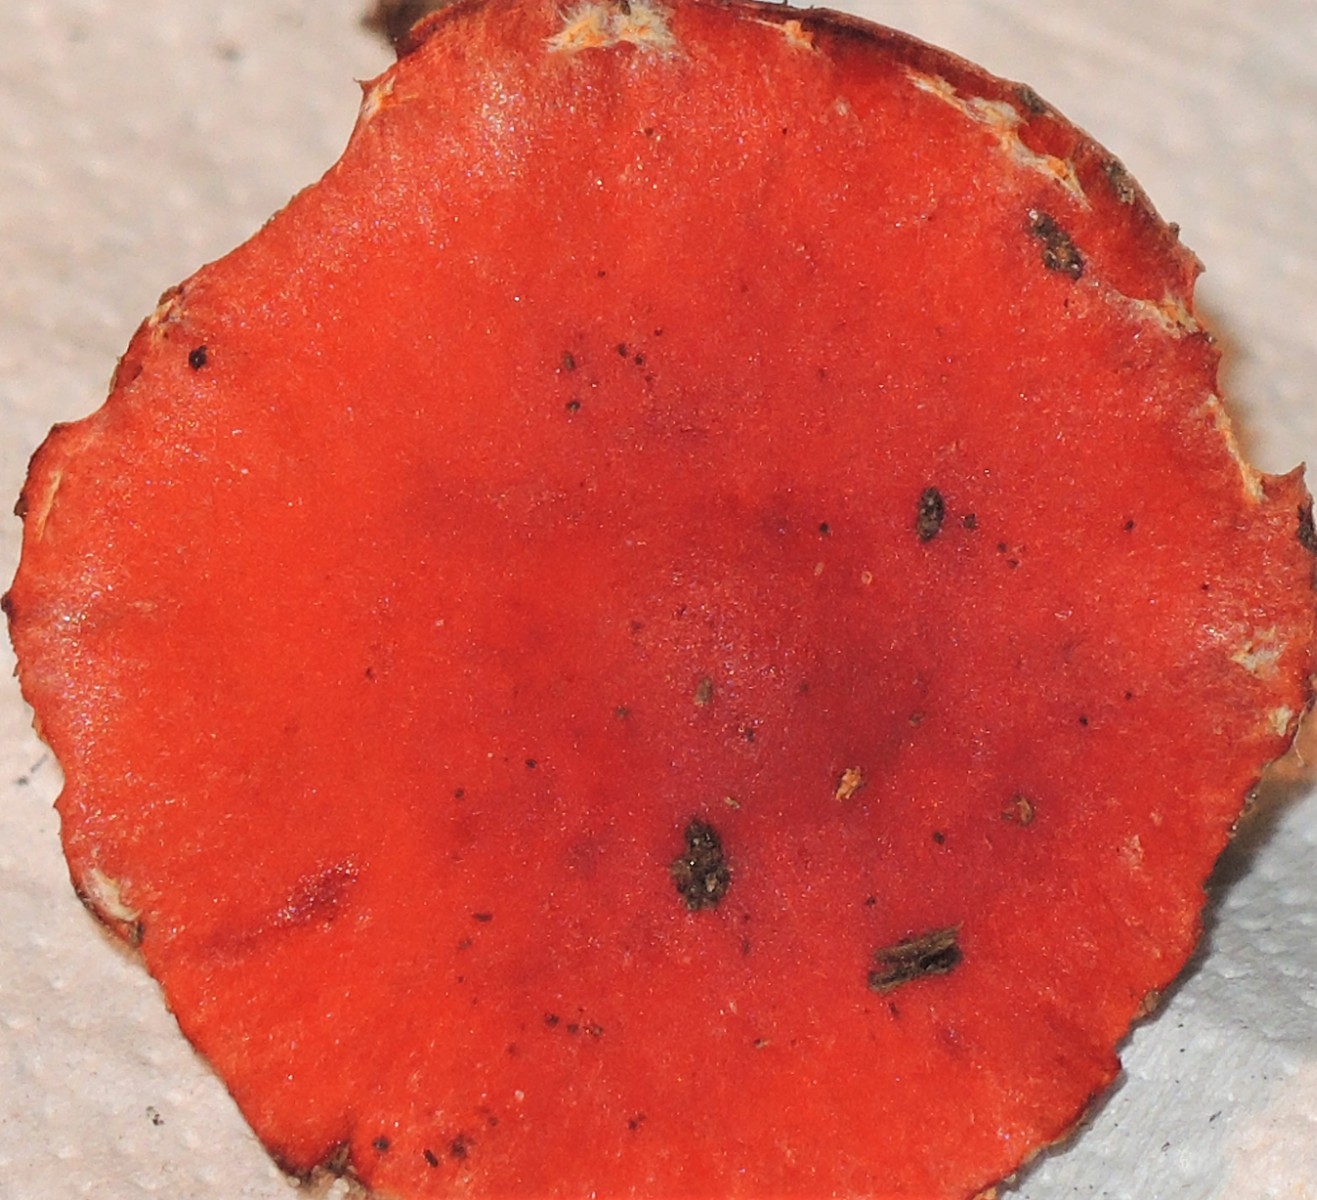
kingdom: Fungi
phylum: Basidiomycota
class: Agaricomycetes
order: Agaricales
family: Strophariaceae
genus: Leratiomyces
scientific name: Leratiomyces ceres
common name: orange bredblad
